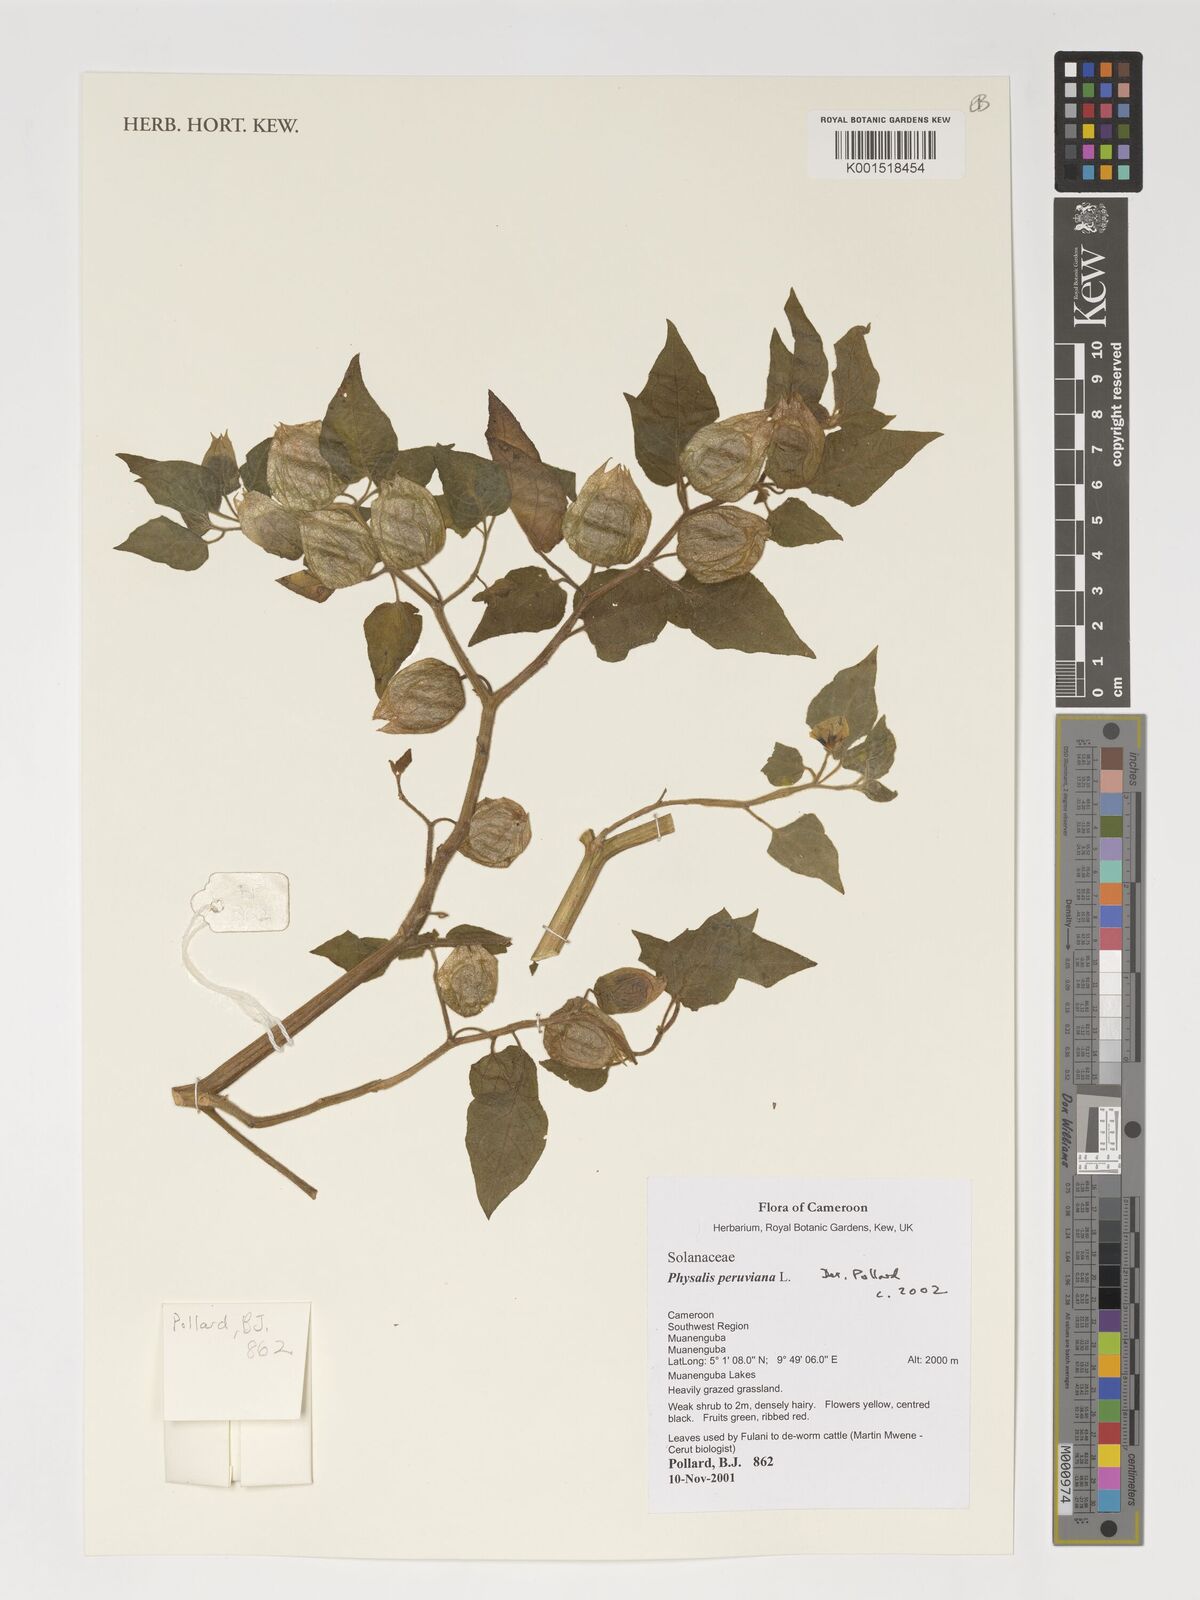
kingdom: Plantae
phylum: Tracheophyta
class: Magnoliopsida
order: Solanales
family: Solanaceae
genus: Physalis
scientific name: Physalis peruviana
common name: Cape-gooseberry
